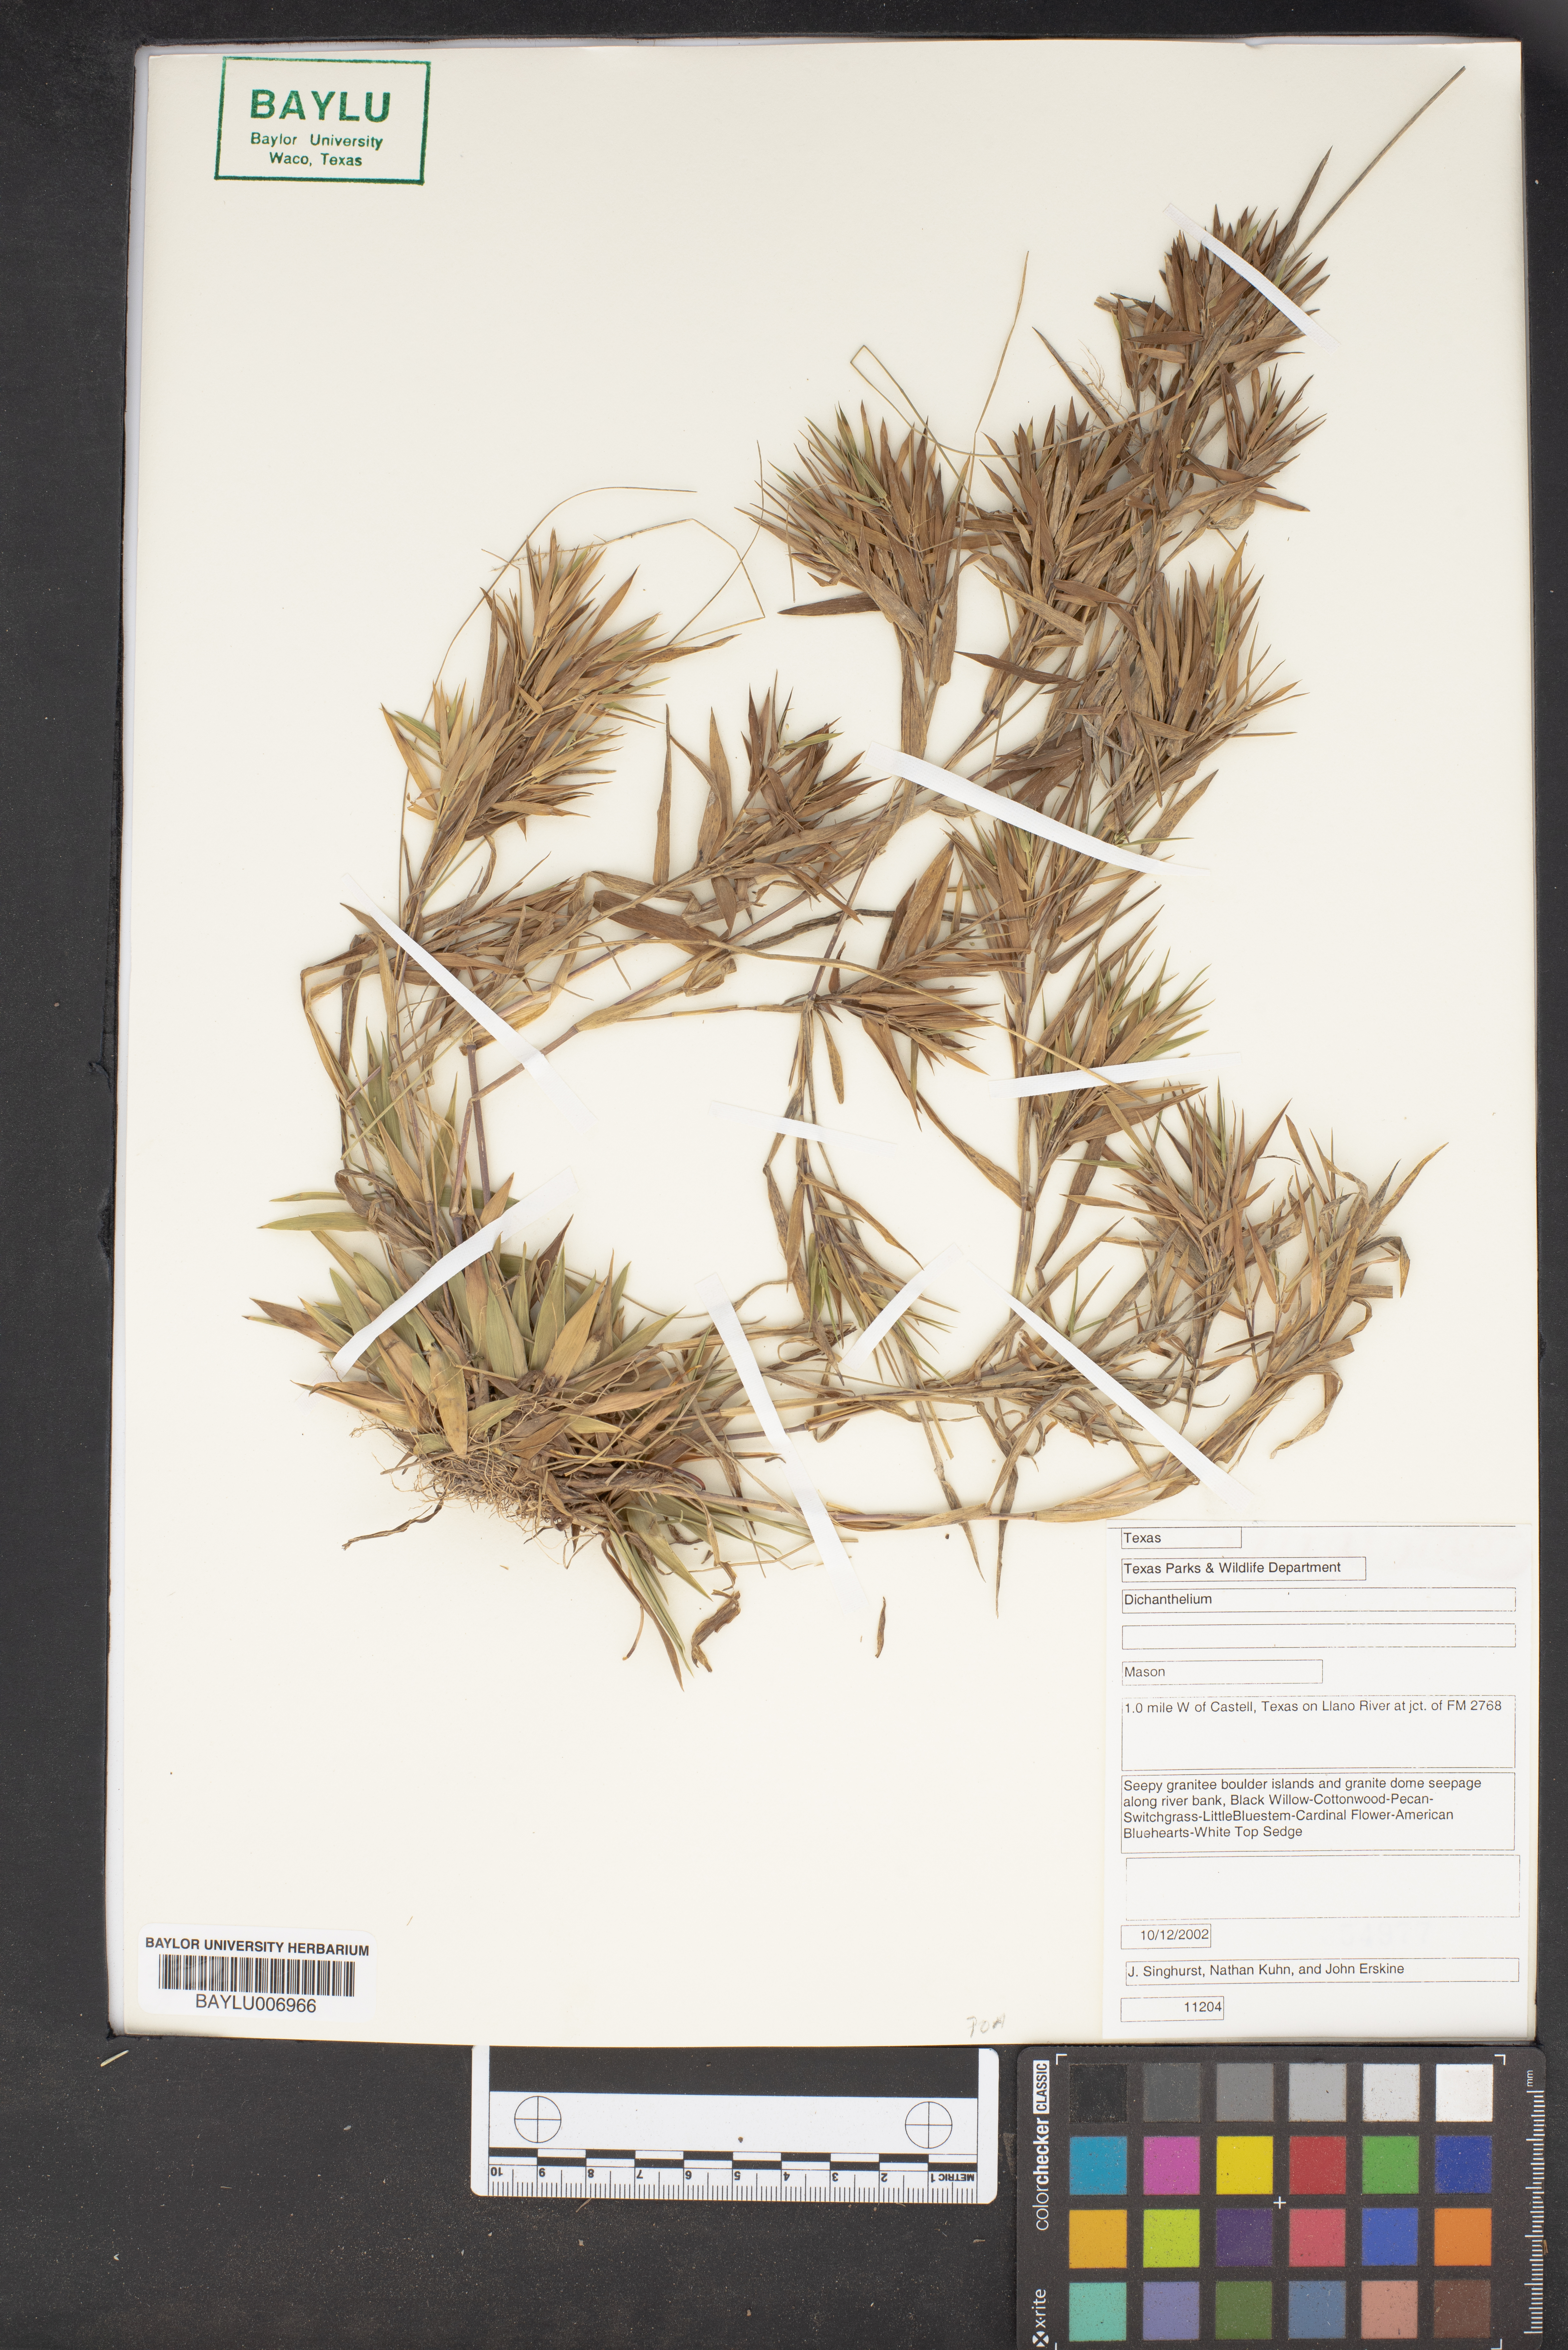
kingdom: Plantae
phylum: Tracheophyta
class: Liliopsida
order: Poales
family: Poaceae
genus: Dichanthelium
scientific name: Dichanthelium
